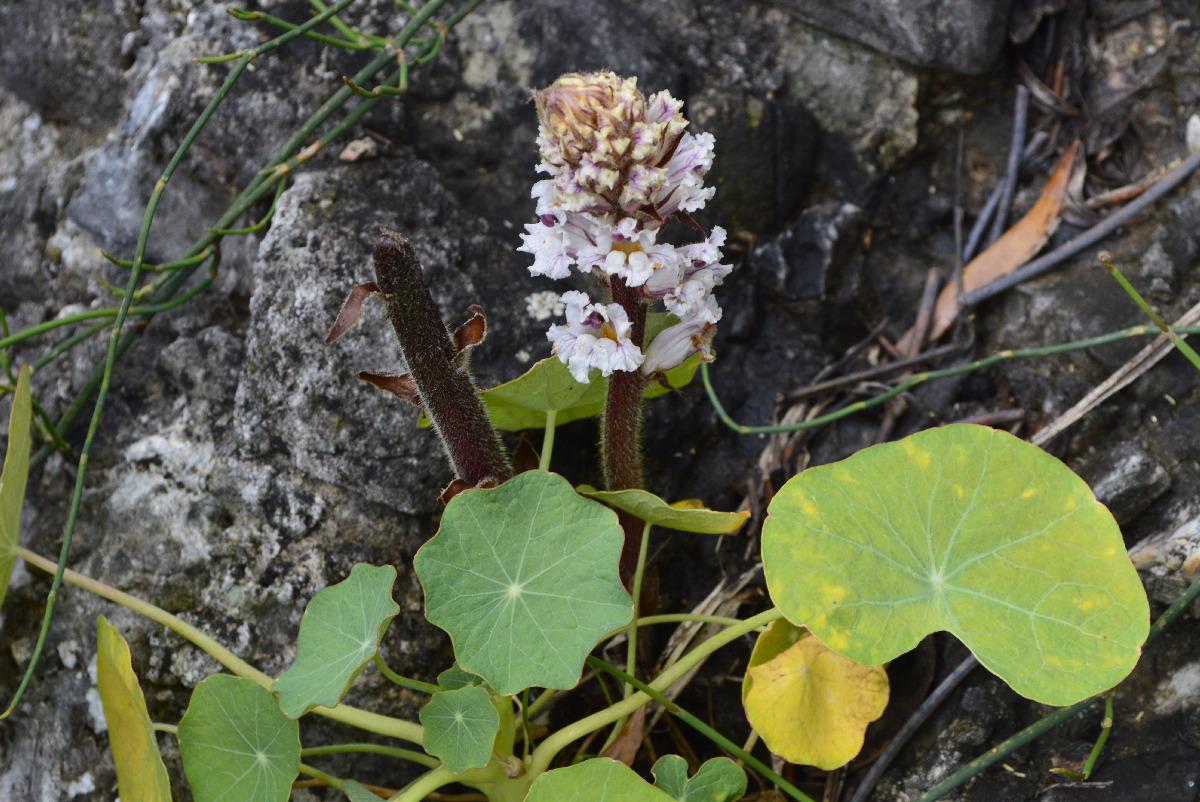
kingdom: Plantae
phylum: Tracheophyta
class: Magnoliopsida
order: Lamiales
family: Orobanchaceae
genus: Orobanche
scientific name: Orobanche crenata
